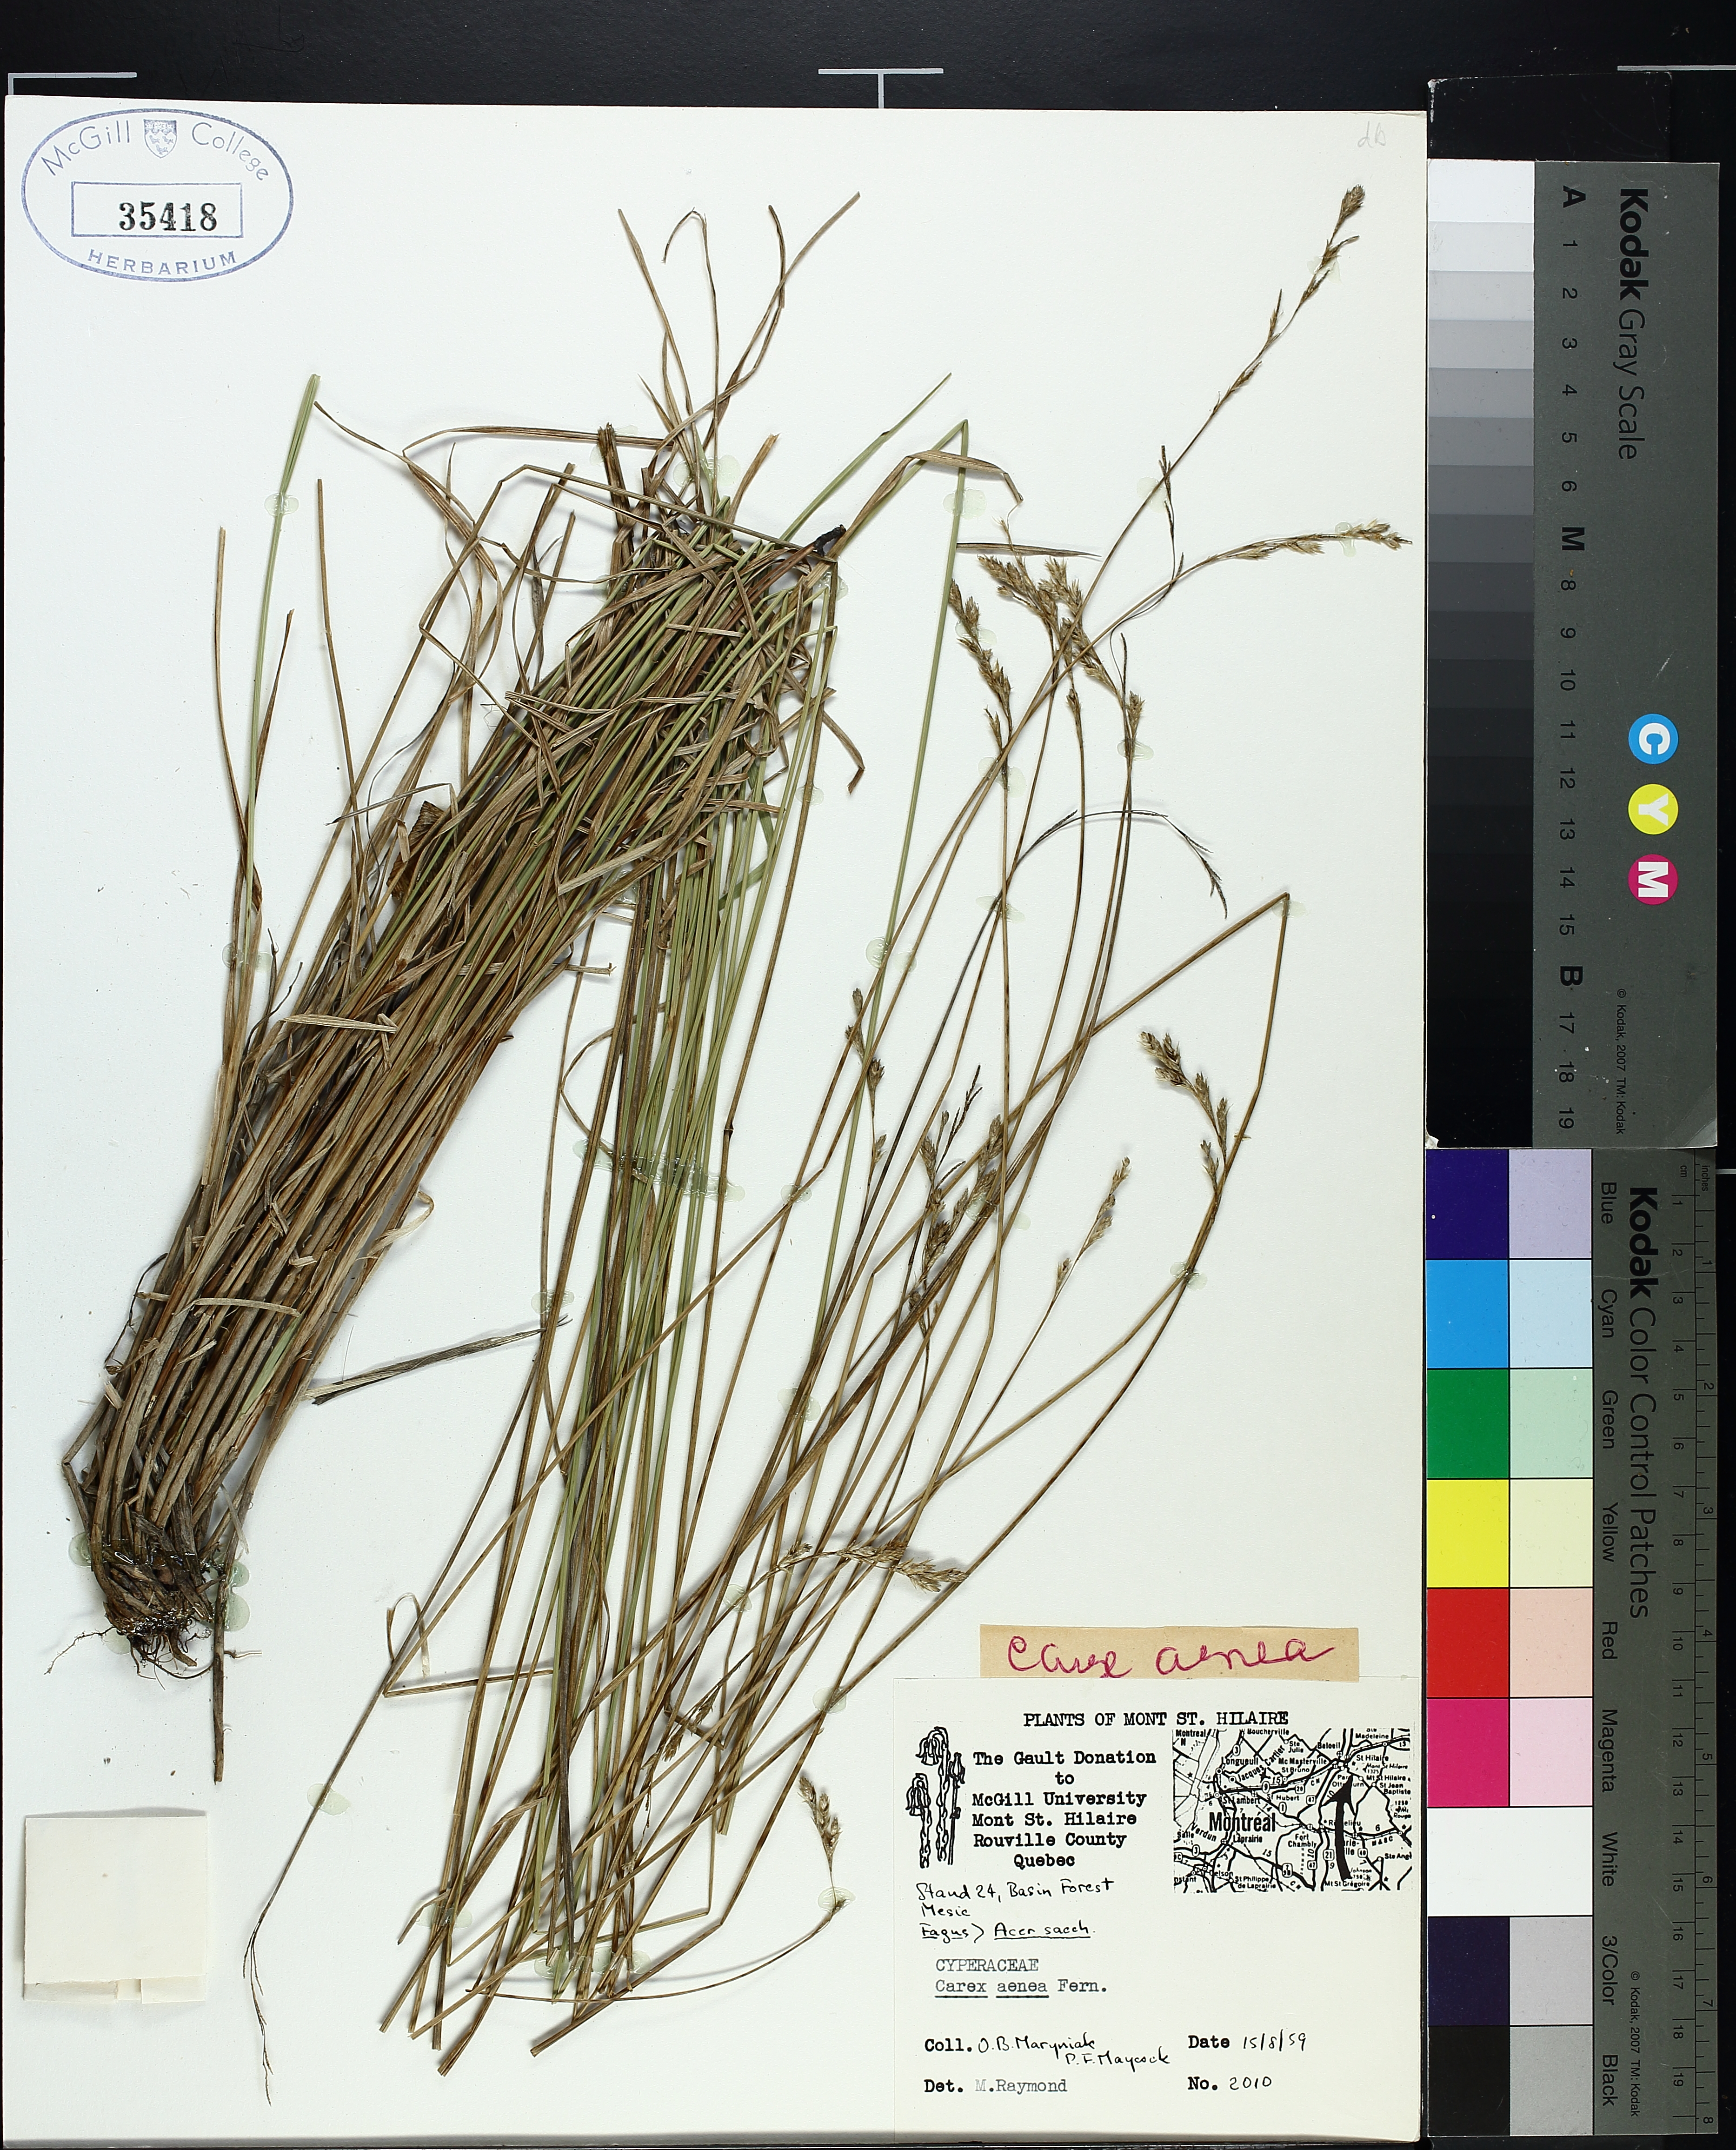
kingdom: Plantae
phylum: Tracheophyta
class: Liliopsida
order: Poales
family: Cyperaceae
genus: Carex
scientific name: Carex foenea
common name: Bronze sedge
